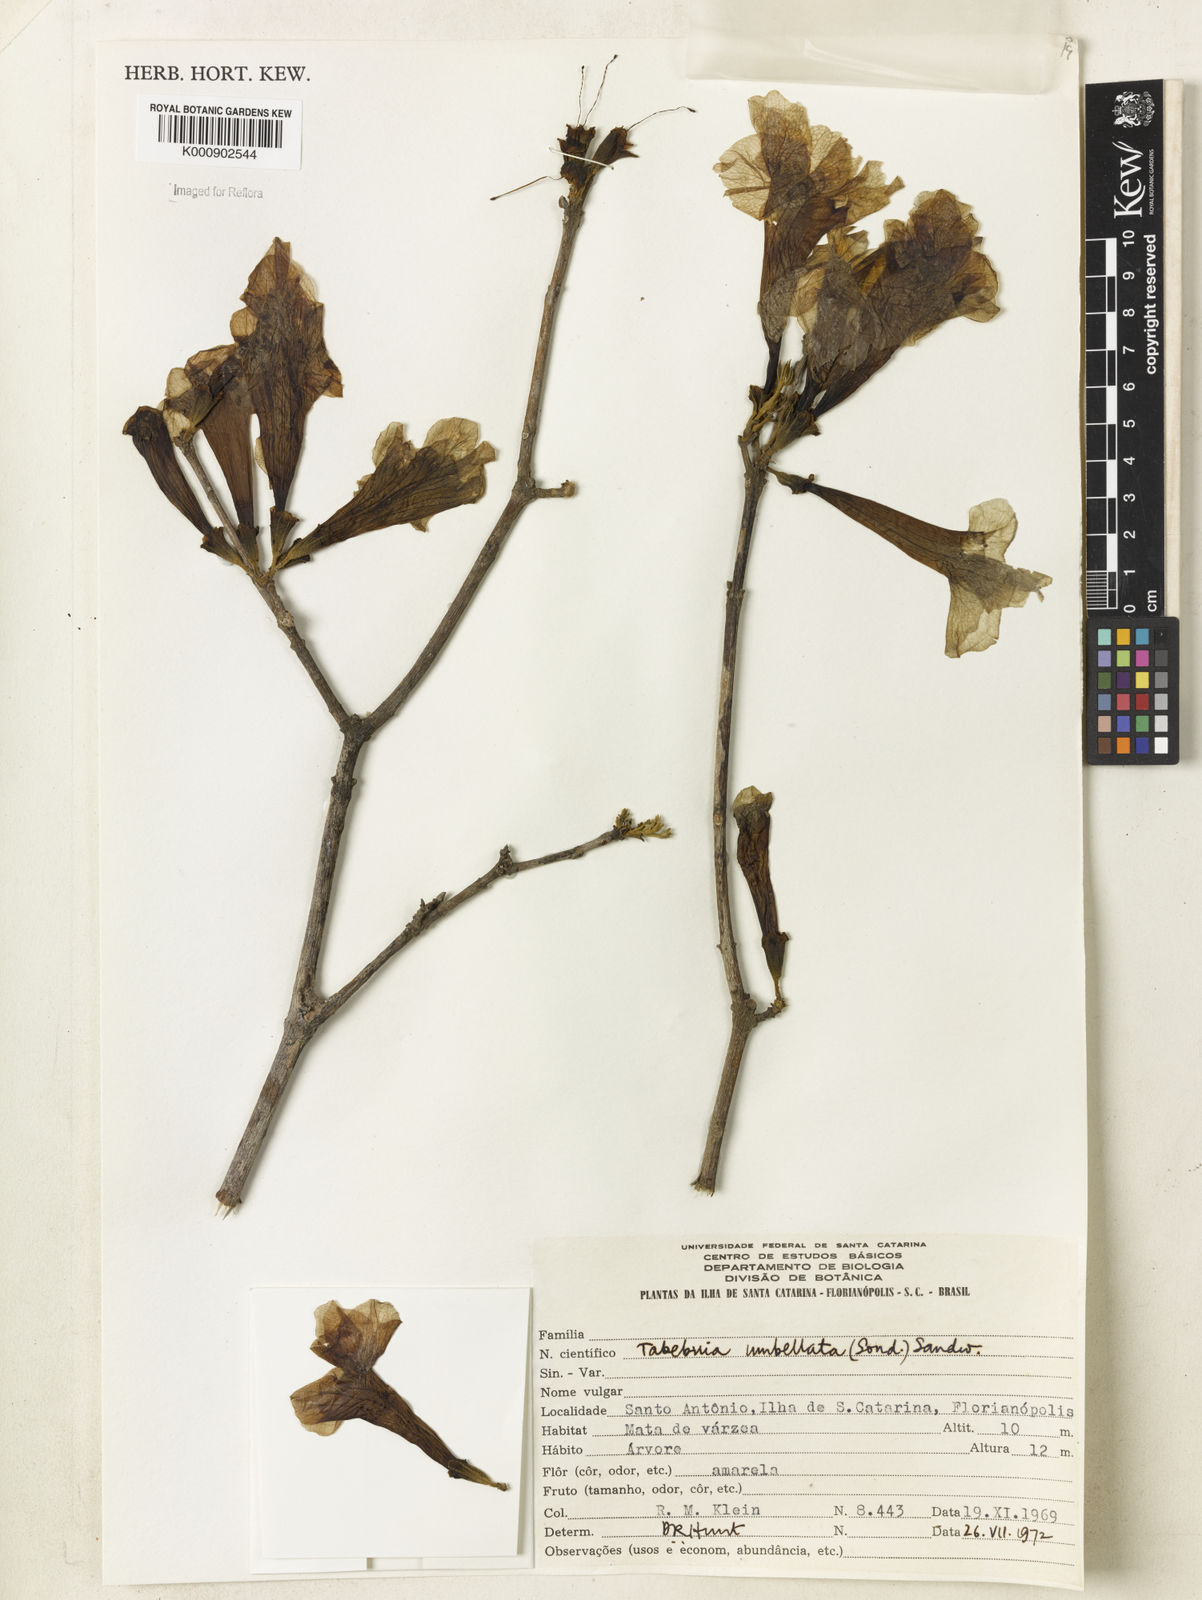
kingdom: Plantae
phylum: Tracheophyta
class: Magnoliopsida
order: Lamiales
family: Bignoniaceae
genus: Handroanthus
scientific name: Handroanthus umbellatus
